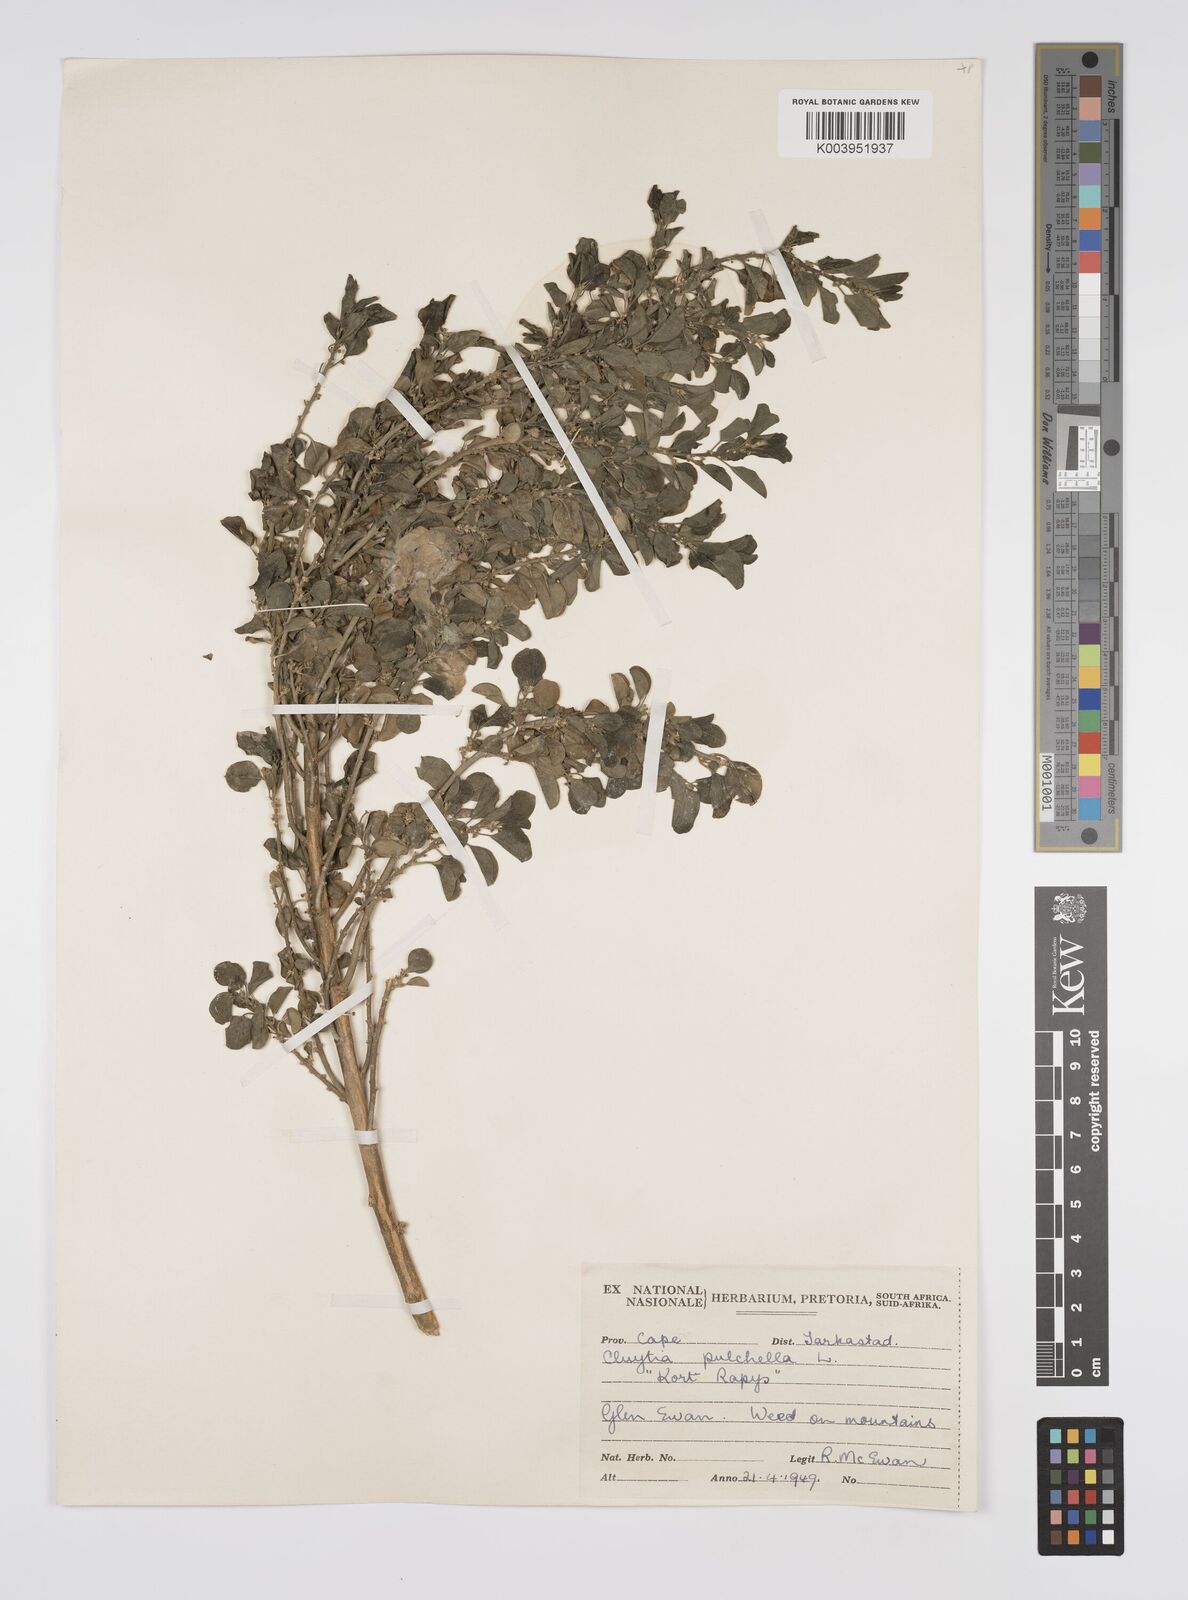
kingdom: Plantae
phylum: Tracheophyta
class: Magnoliopsida
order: Malpighiales
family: Peraceae
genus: Clutia
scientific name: Clutia pulchella
